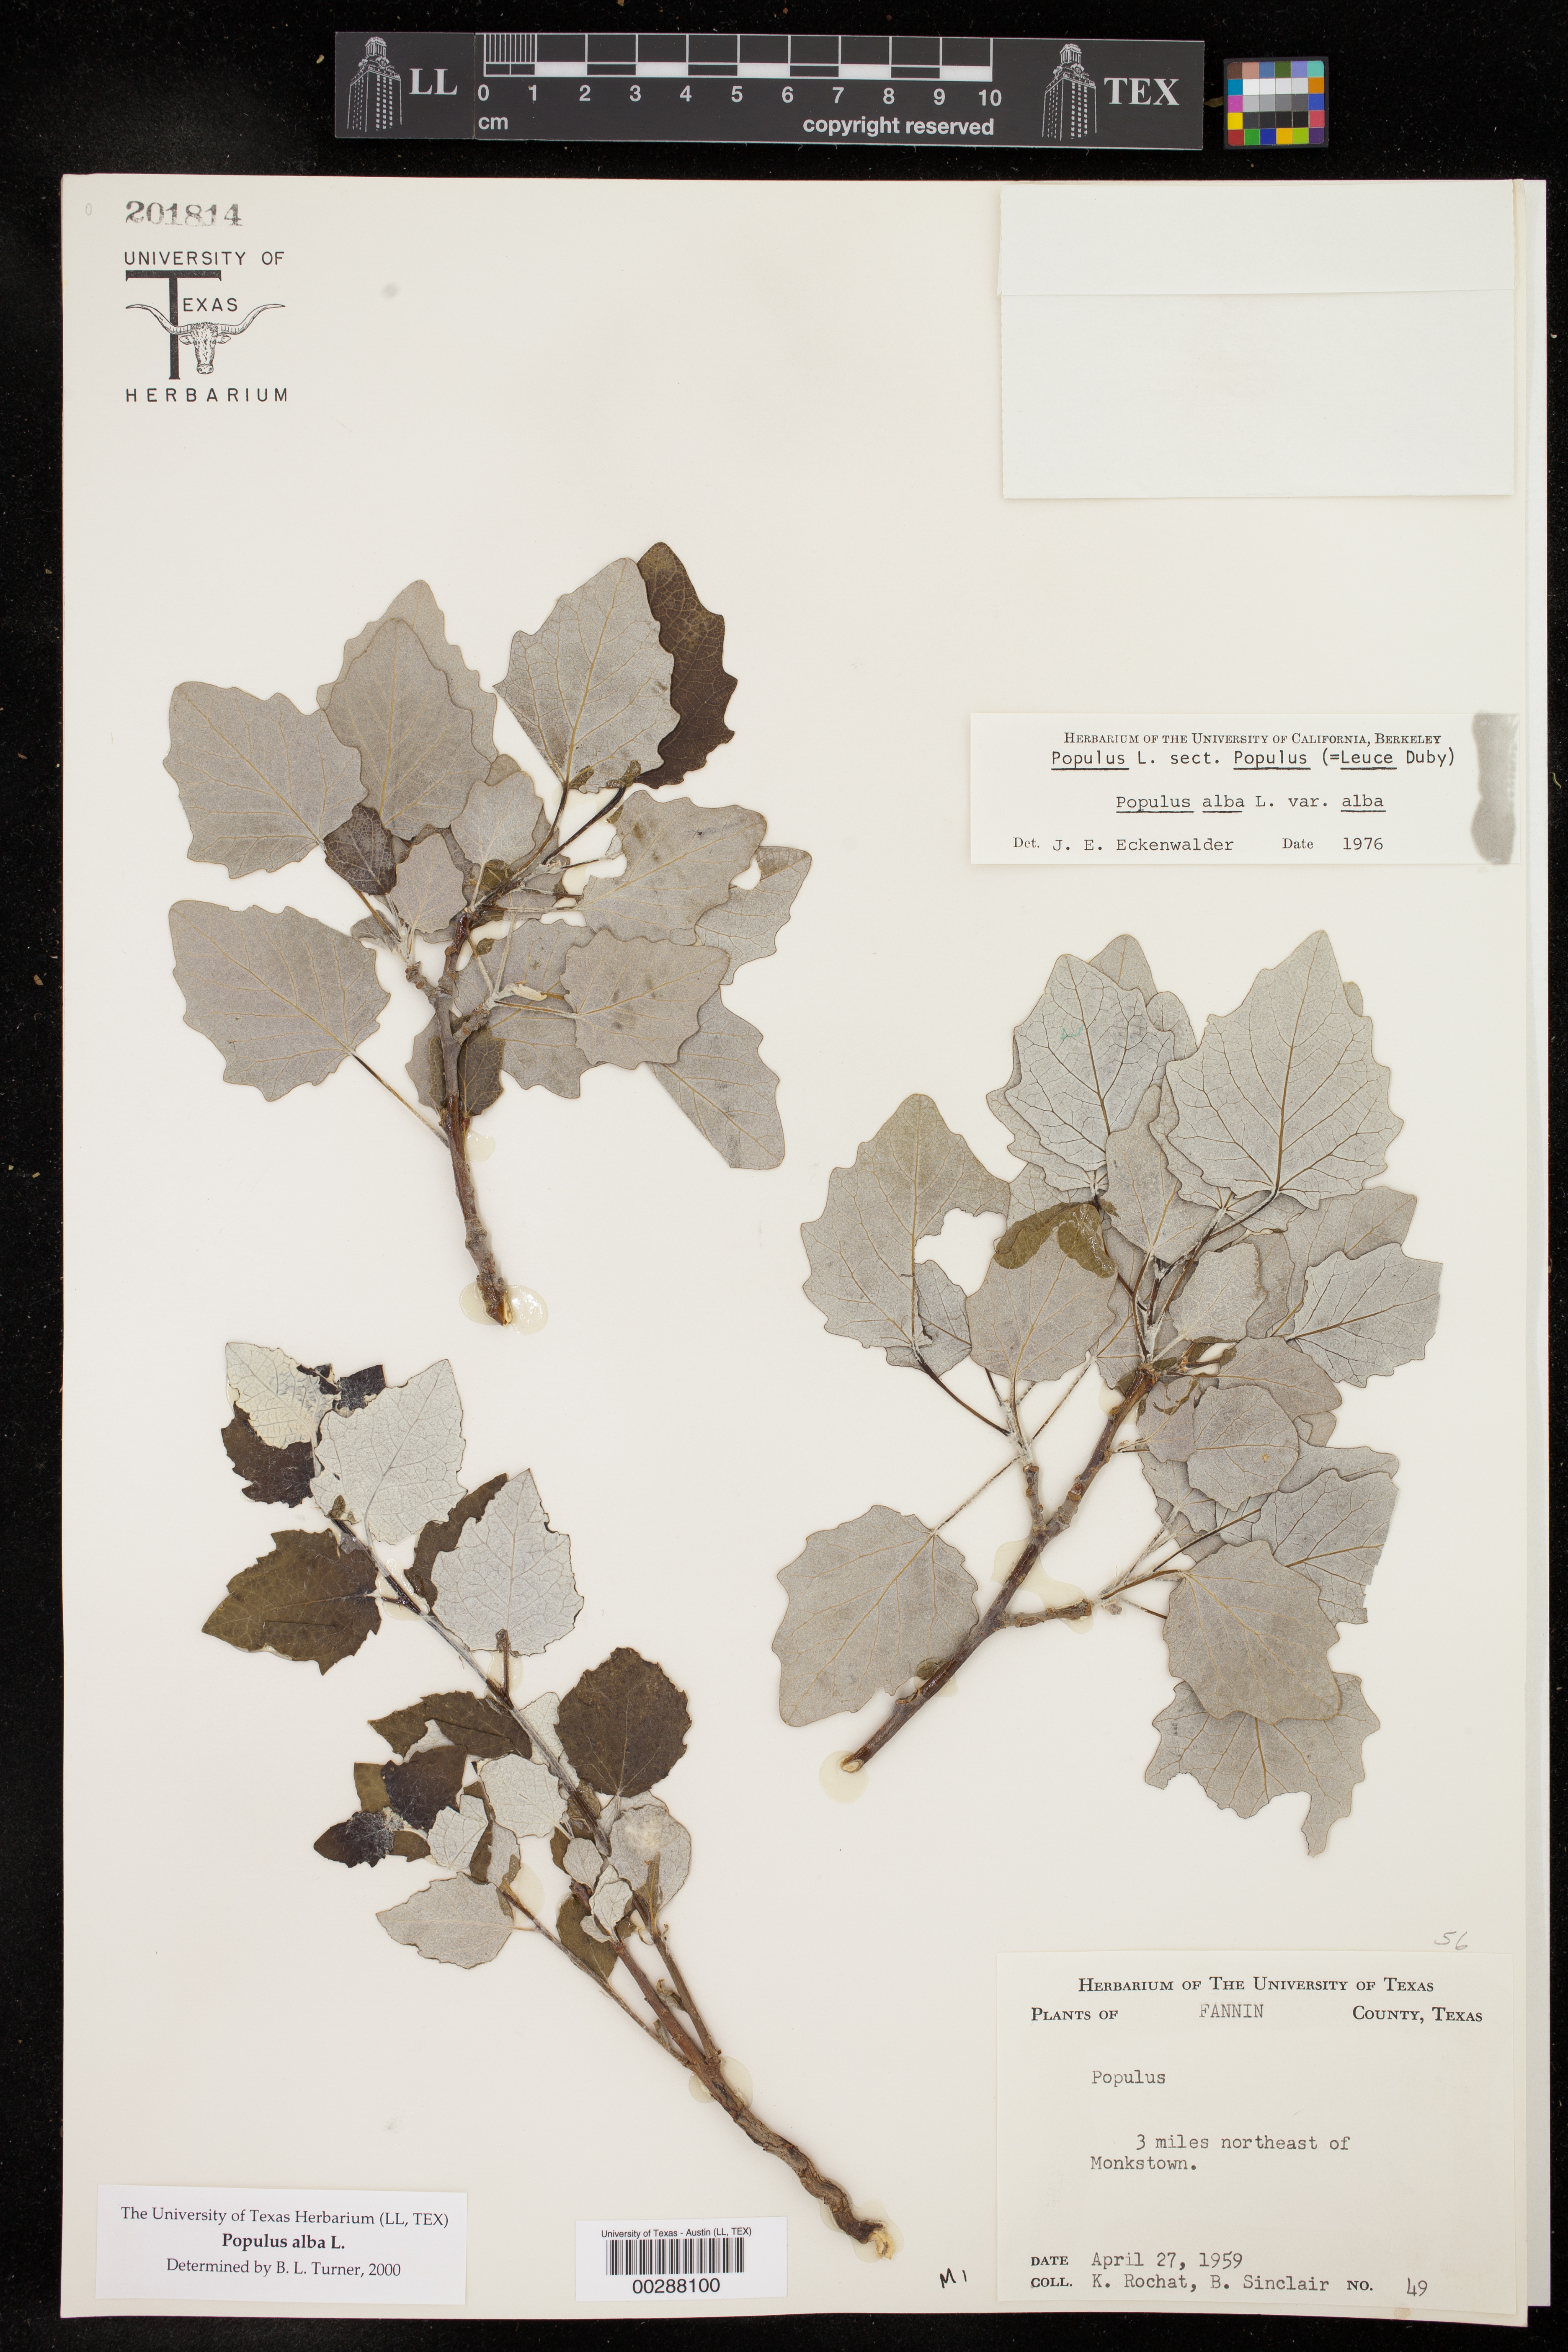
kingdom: Plantae
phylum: Tracheophyta
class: Magnoliopsida
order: Malpighiales
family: Salicaceae
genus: Populus
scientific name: Populus alba
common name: White poplar
